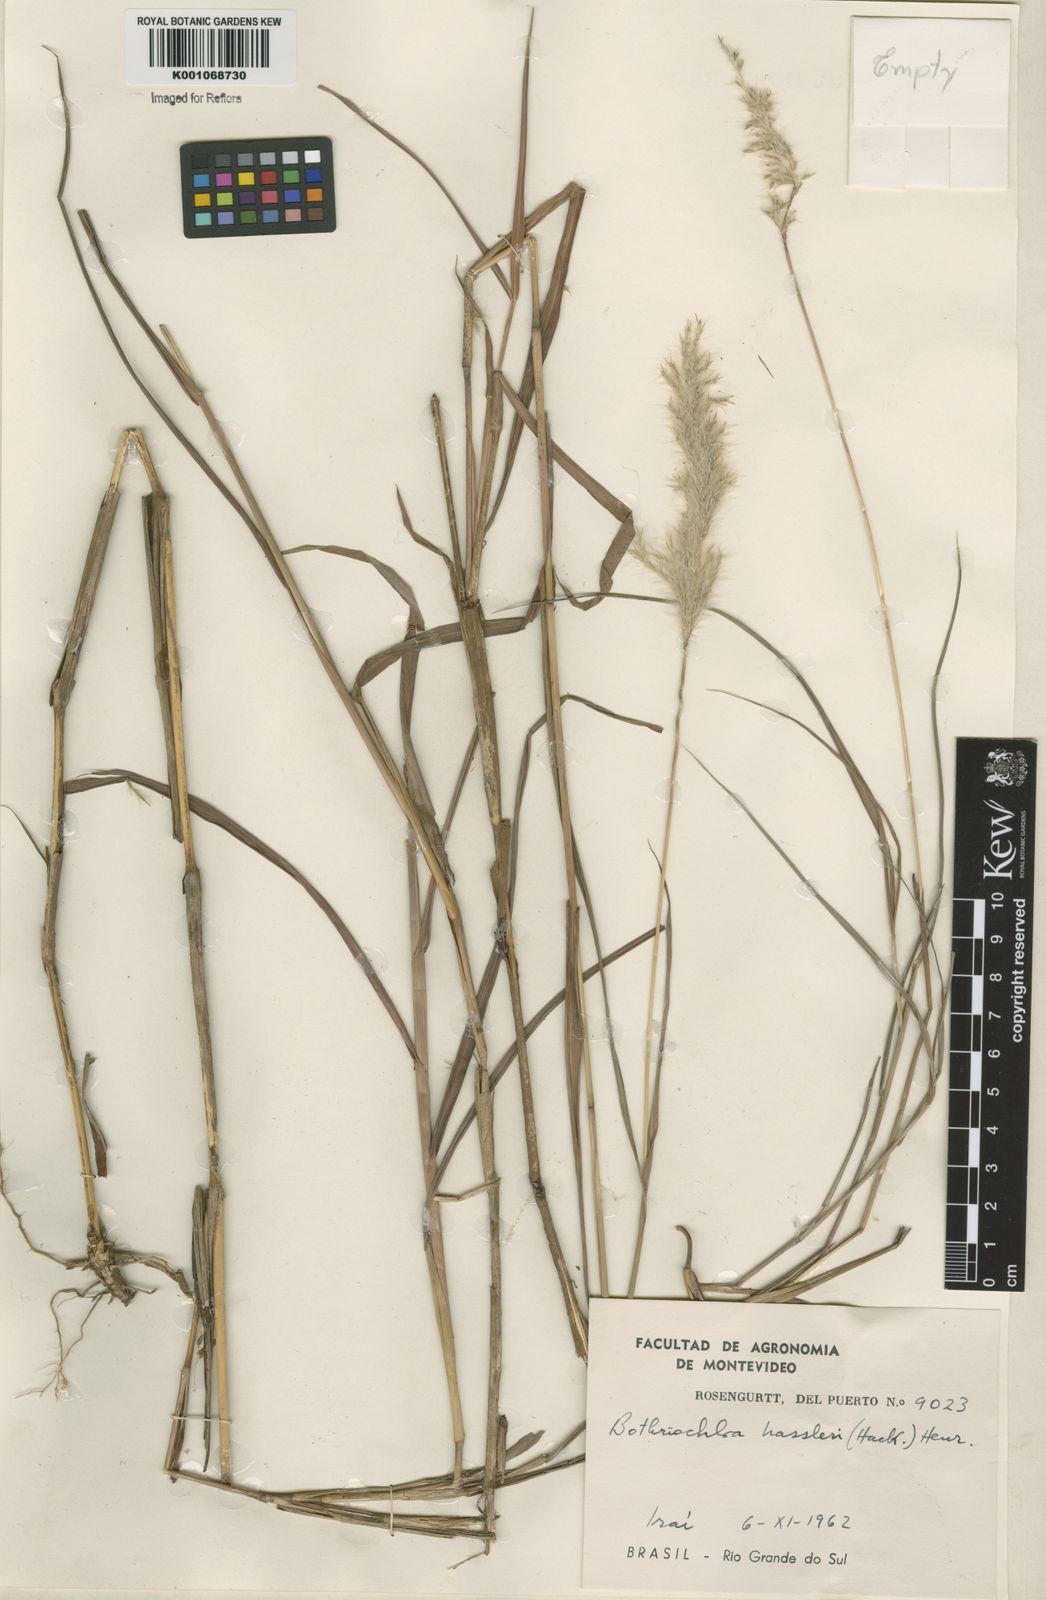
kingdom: Plantae
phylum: Tracheophyta
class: Liliopsida
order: Poales
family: Poaceae
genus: Bothriochloa
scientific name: Bothriochloa laguroides
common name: Silver bluestem
